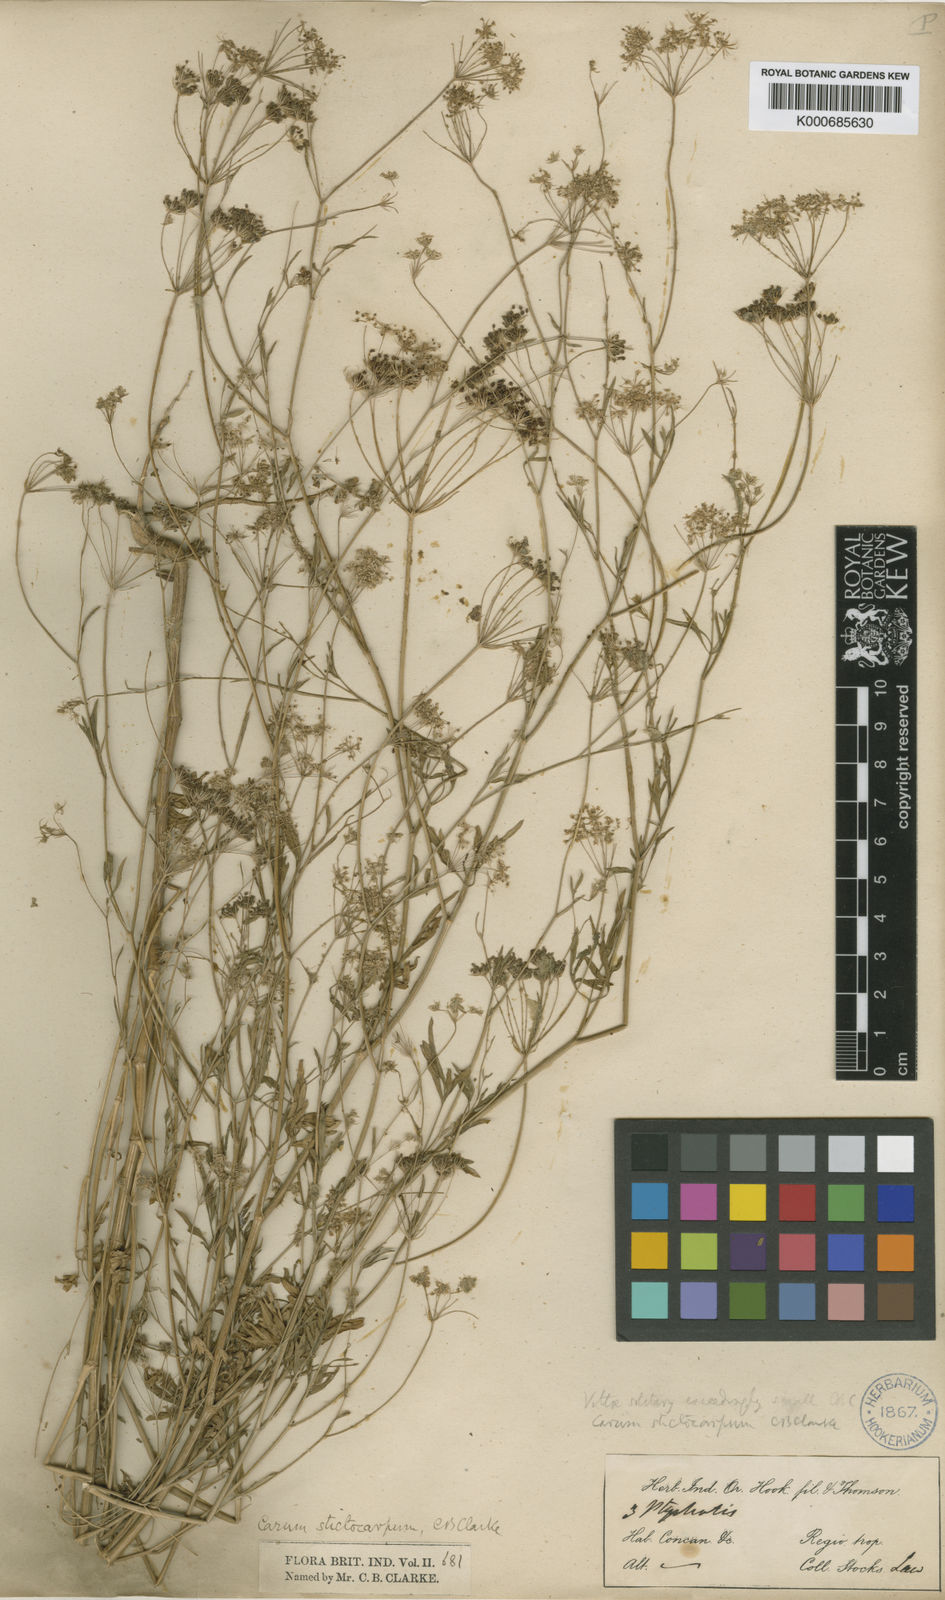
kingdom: Plantae
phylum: Tracheophyta
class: Magnoliopsida
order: Apiales
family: Apiaceae
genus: Psammogeton
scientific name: Psammogeton involucratum
